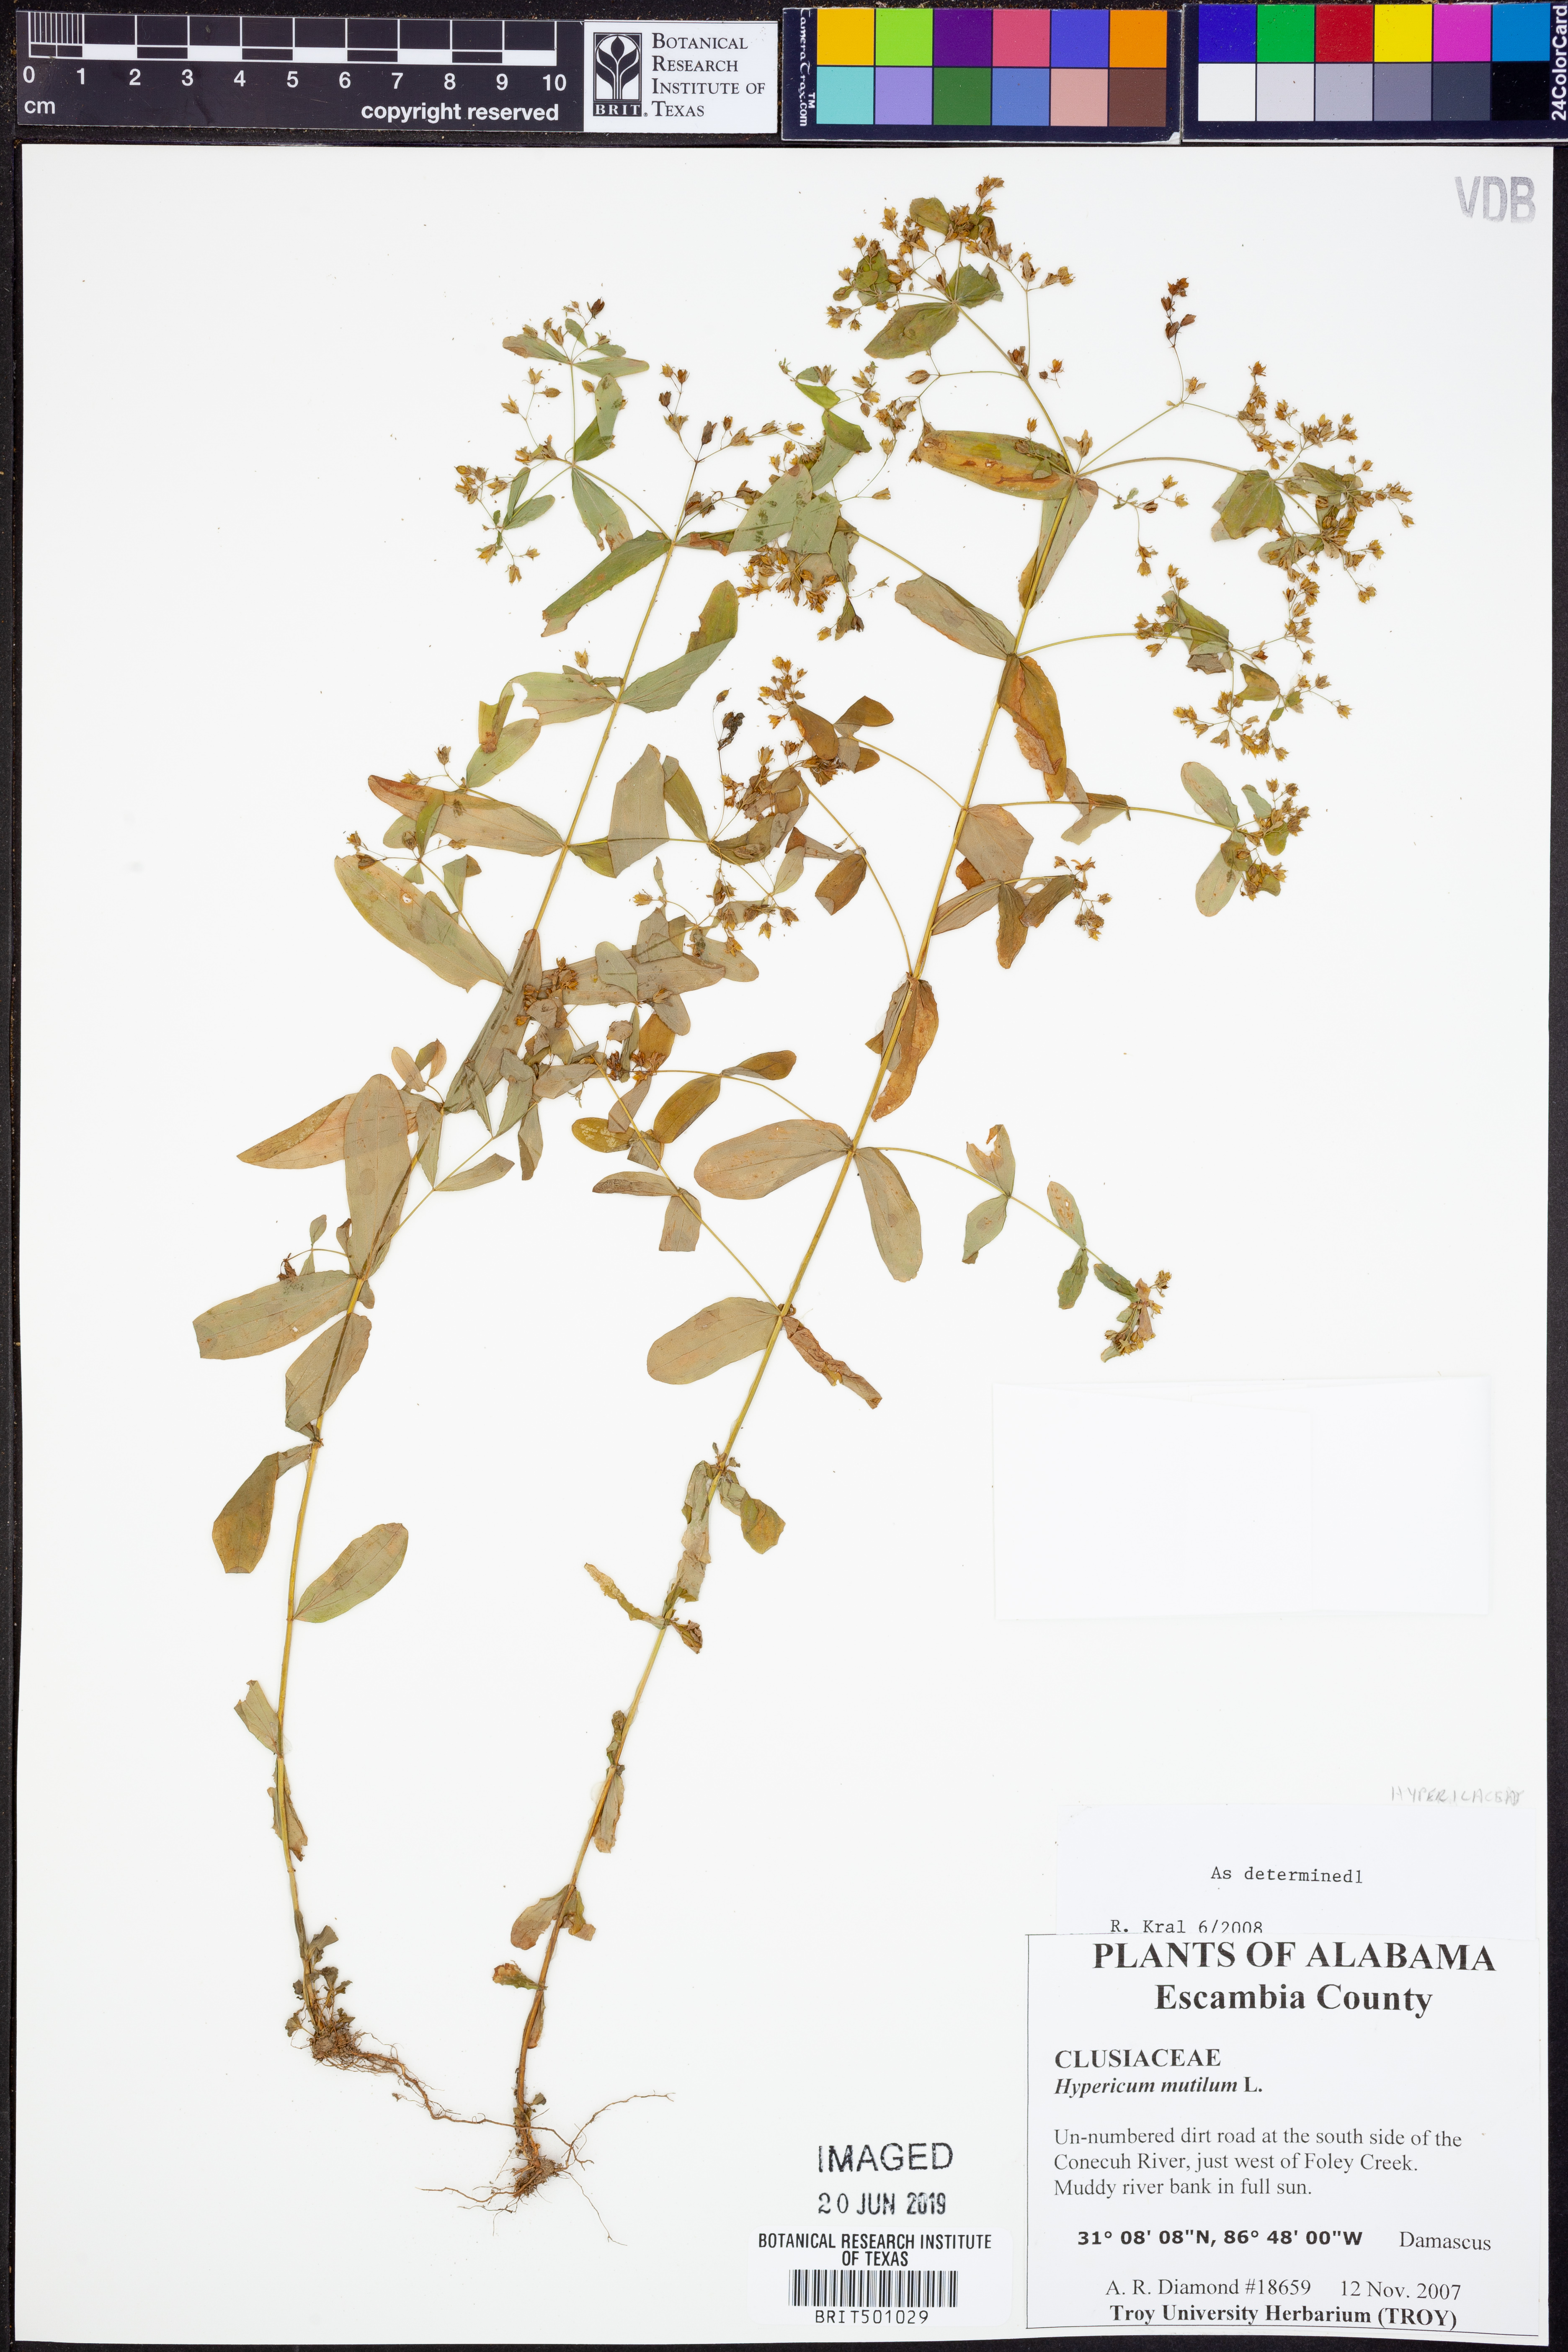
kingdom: Plantae
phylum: Tracheophyta
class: Magnoliopsida
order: Malpighiales
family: Hypericaceae
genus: Hypericum
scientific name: Hypericum mutilum
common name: Dwarf st. john's-wort
